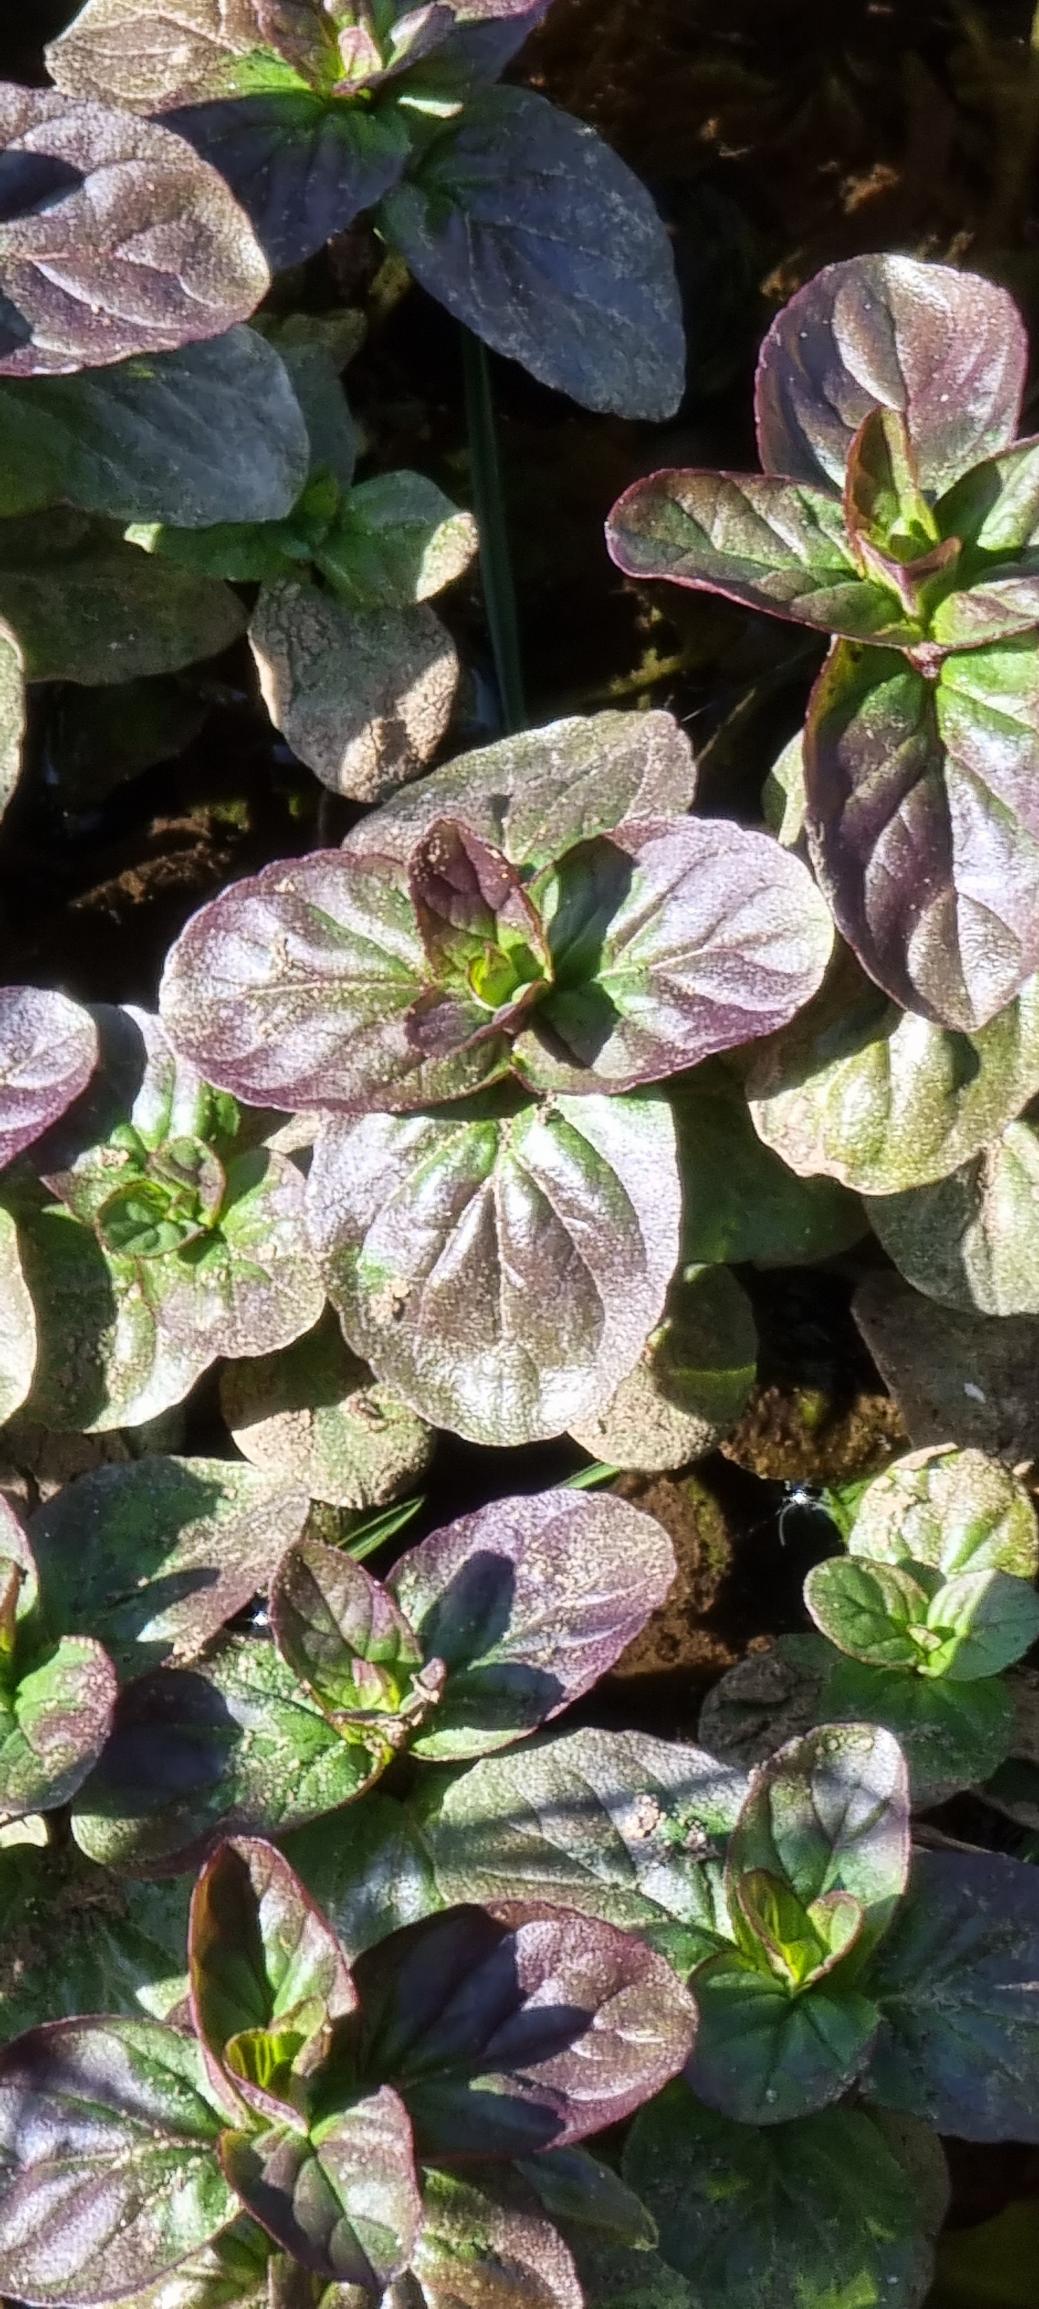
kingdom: Plantae
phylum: Tracheophyta
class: Magnoliopsida
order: Lamiales
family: Lamiaceae
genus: Mentha
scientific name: Mentha aquatica
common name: Vand-mynte
